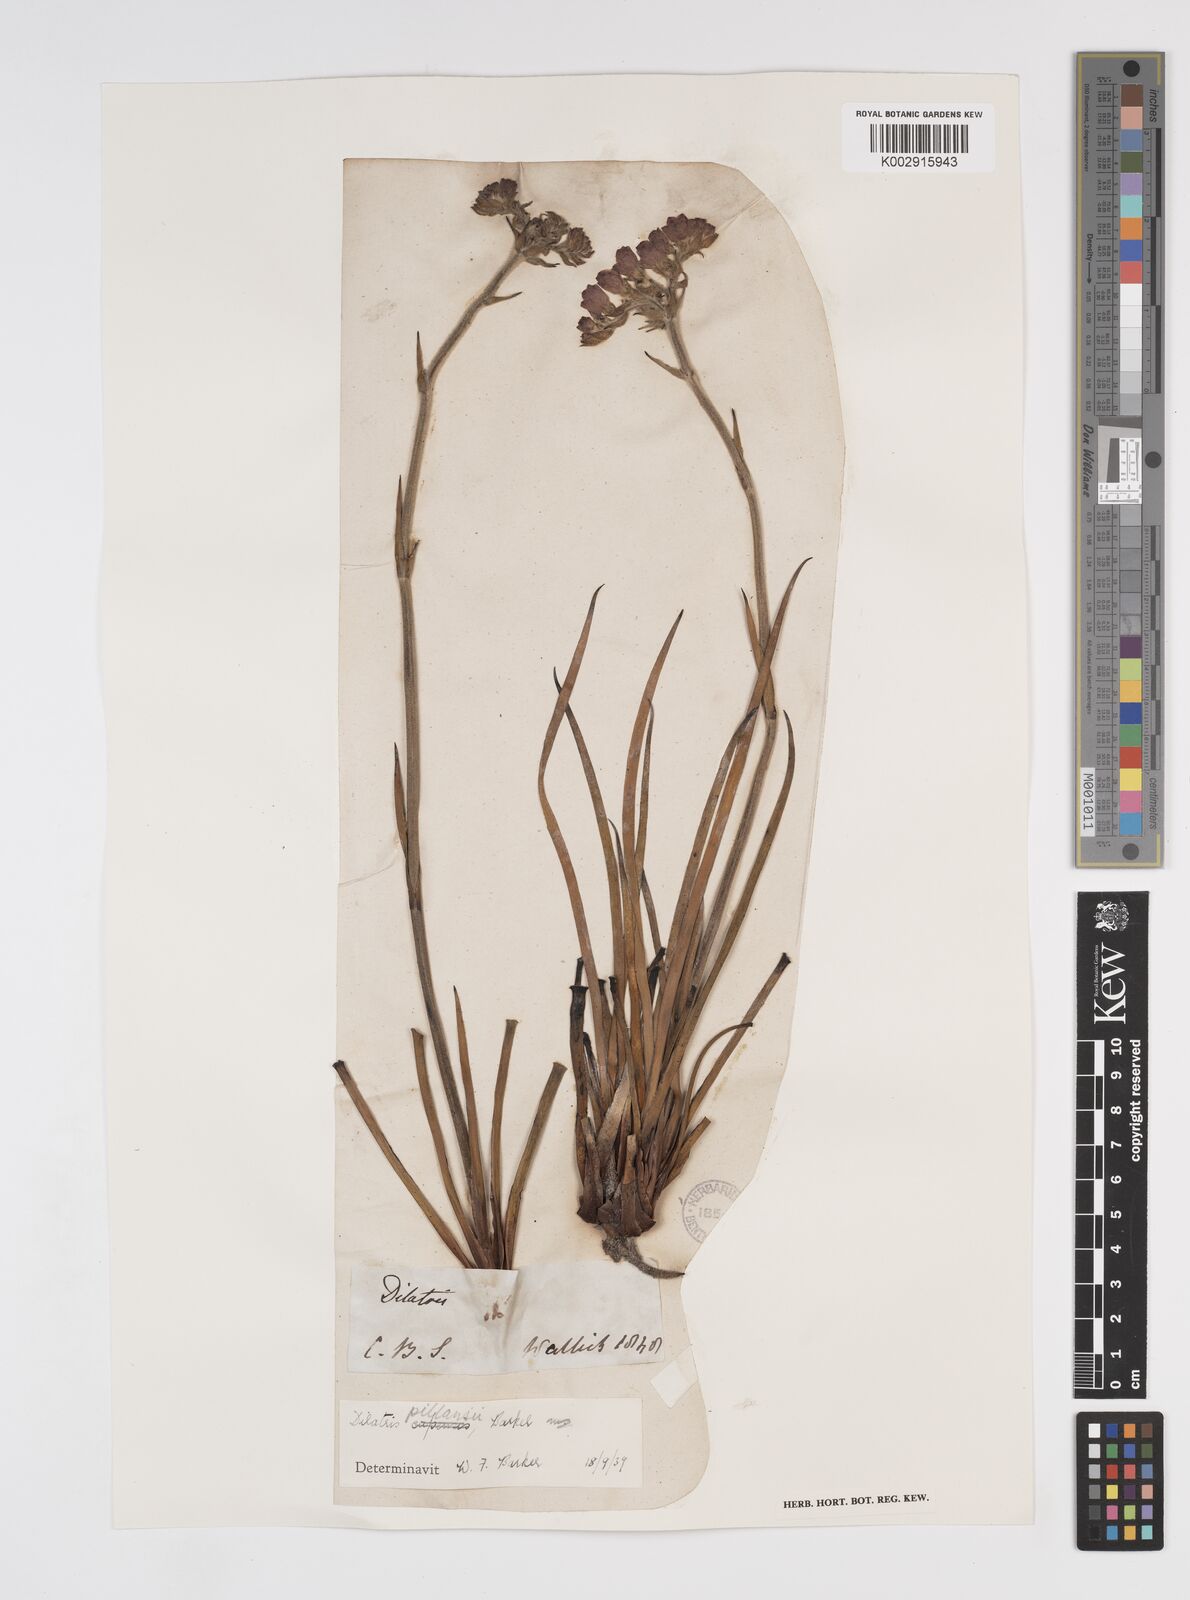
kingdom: Plantae
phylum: Tracheophyta
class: Liliopsida
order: Commelinales
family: Haemodoraceae
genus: Dilatris
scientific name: Dilatris pillansii
